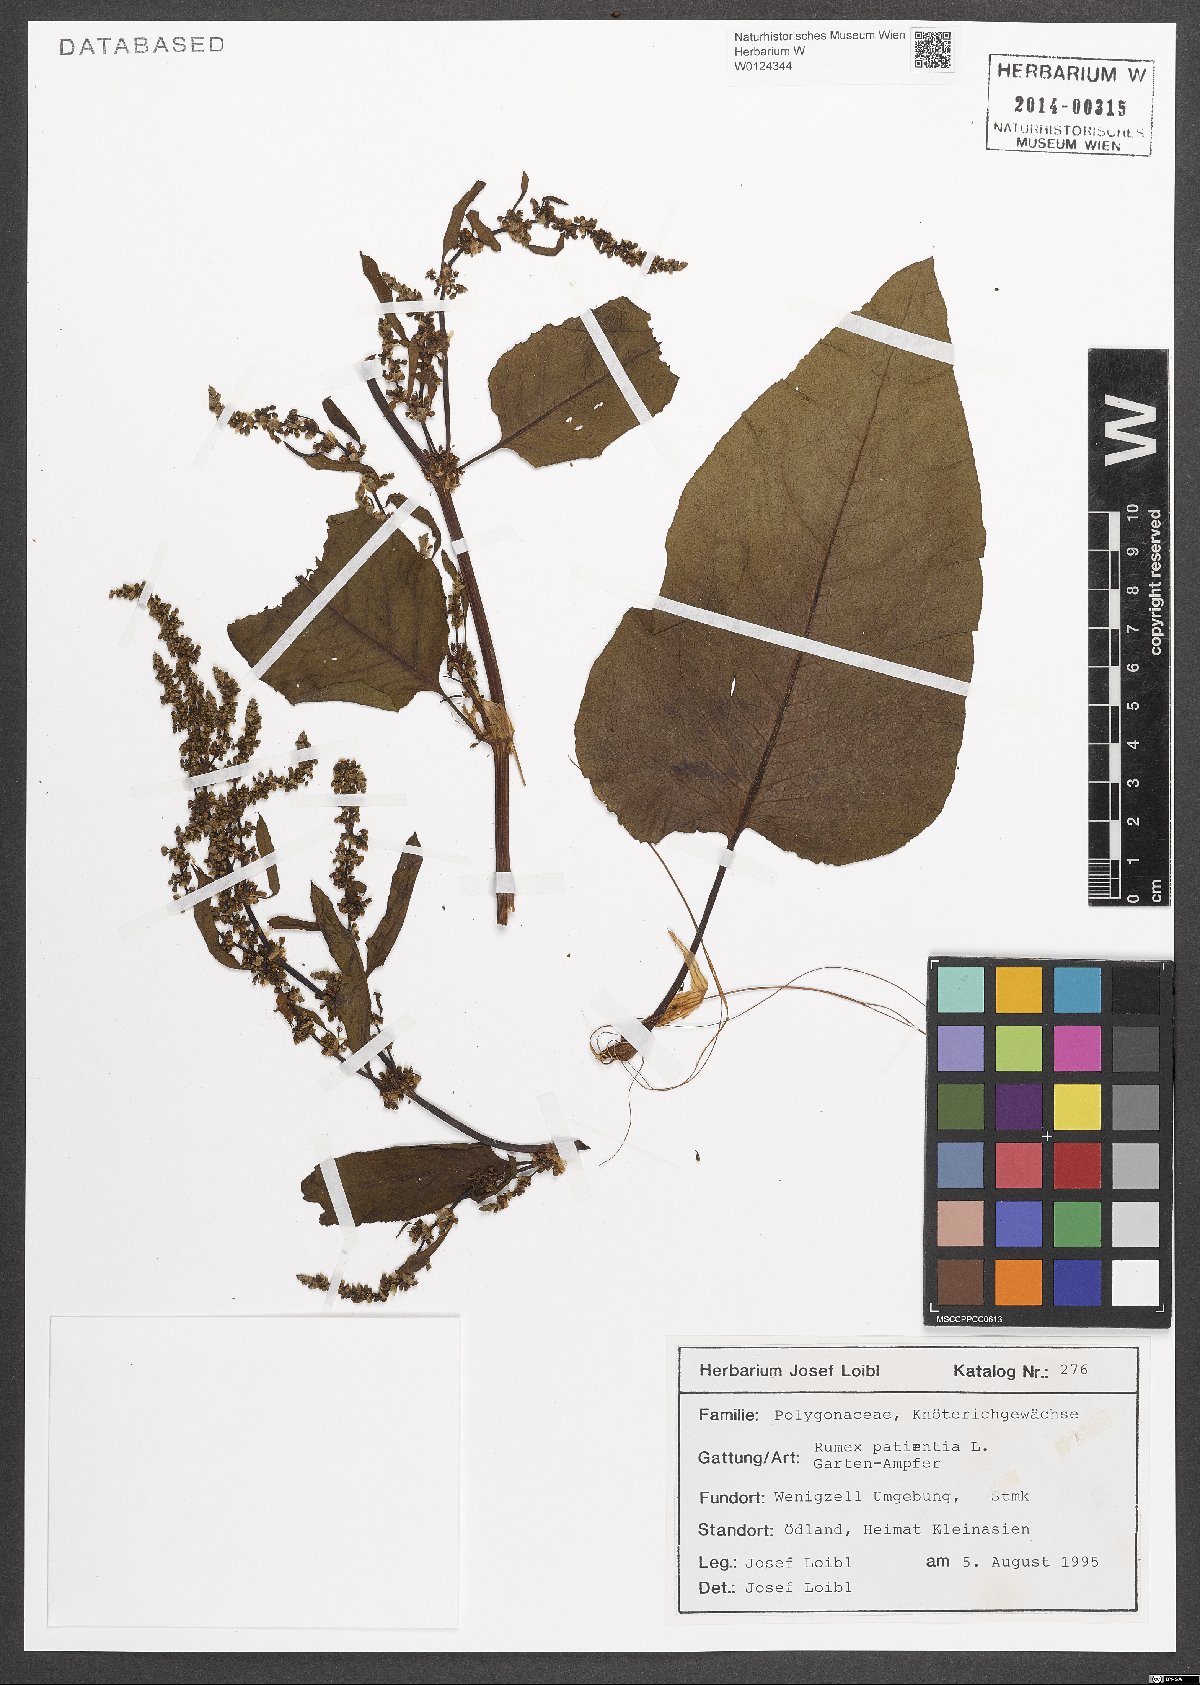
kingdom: Plantae
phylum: Tracheophyta
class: Magnoliopsida
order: Caryophyllales
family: Polygonaceae
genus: Rumex
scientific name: Rumex patientia
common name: Patience dock
